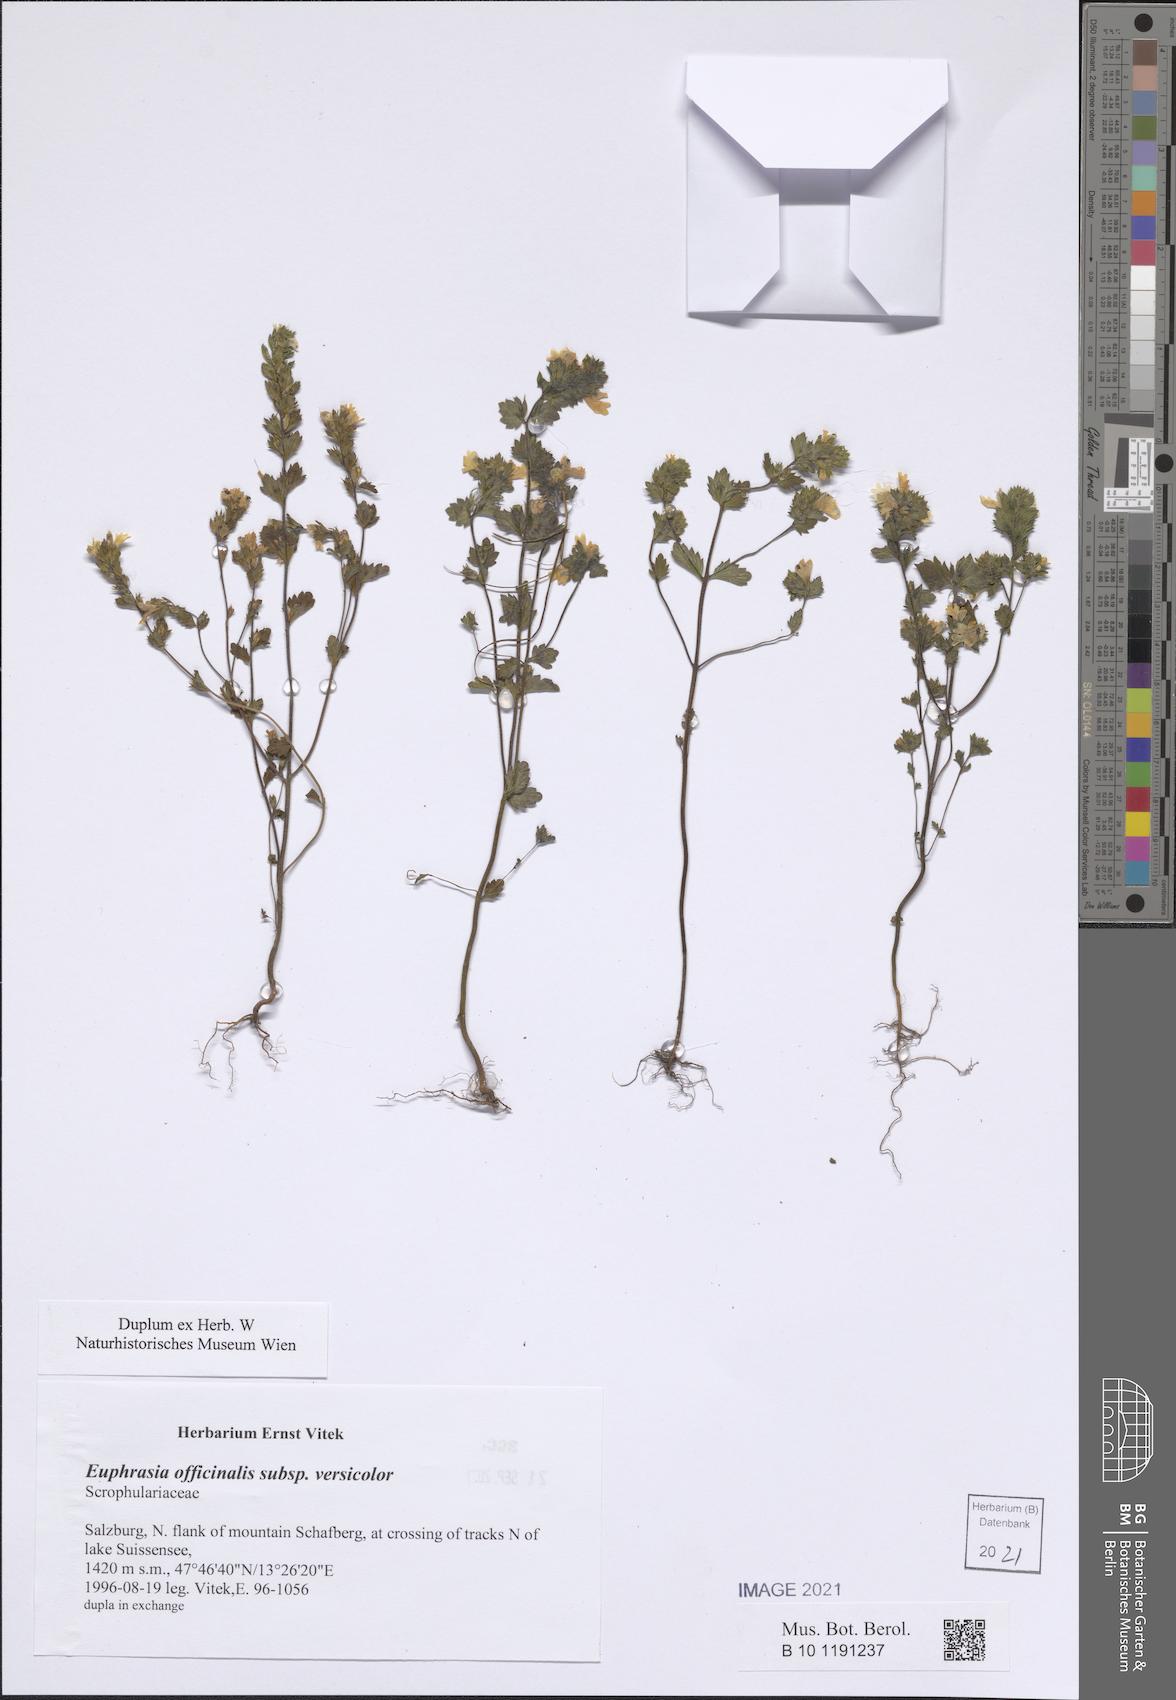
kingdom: Plantae
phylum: Tracheophyta
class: Magnoliopsida
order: Lamiales
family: Orobanchaceae
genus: Euphrasia
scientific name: Euphrasia picta
